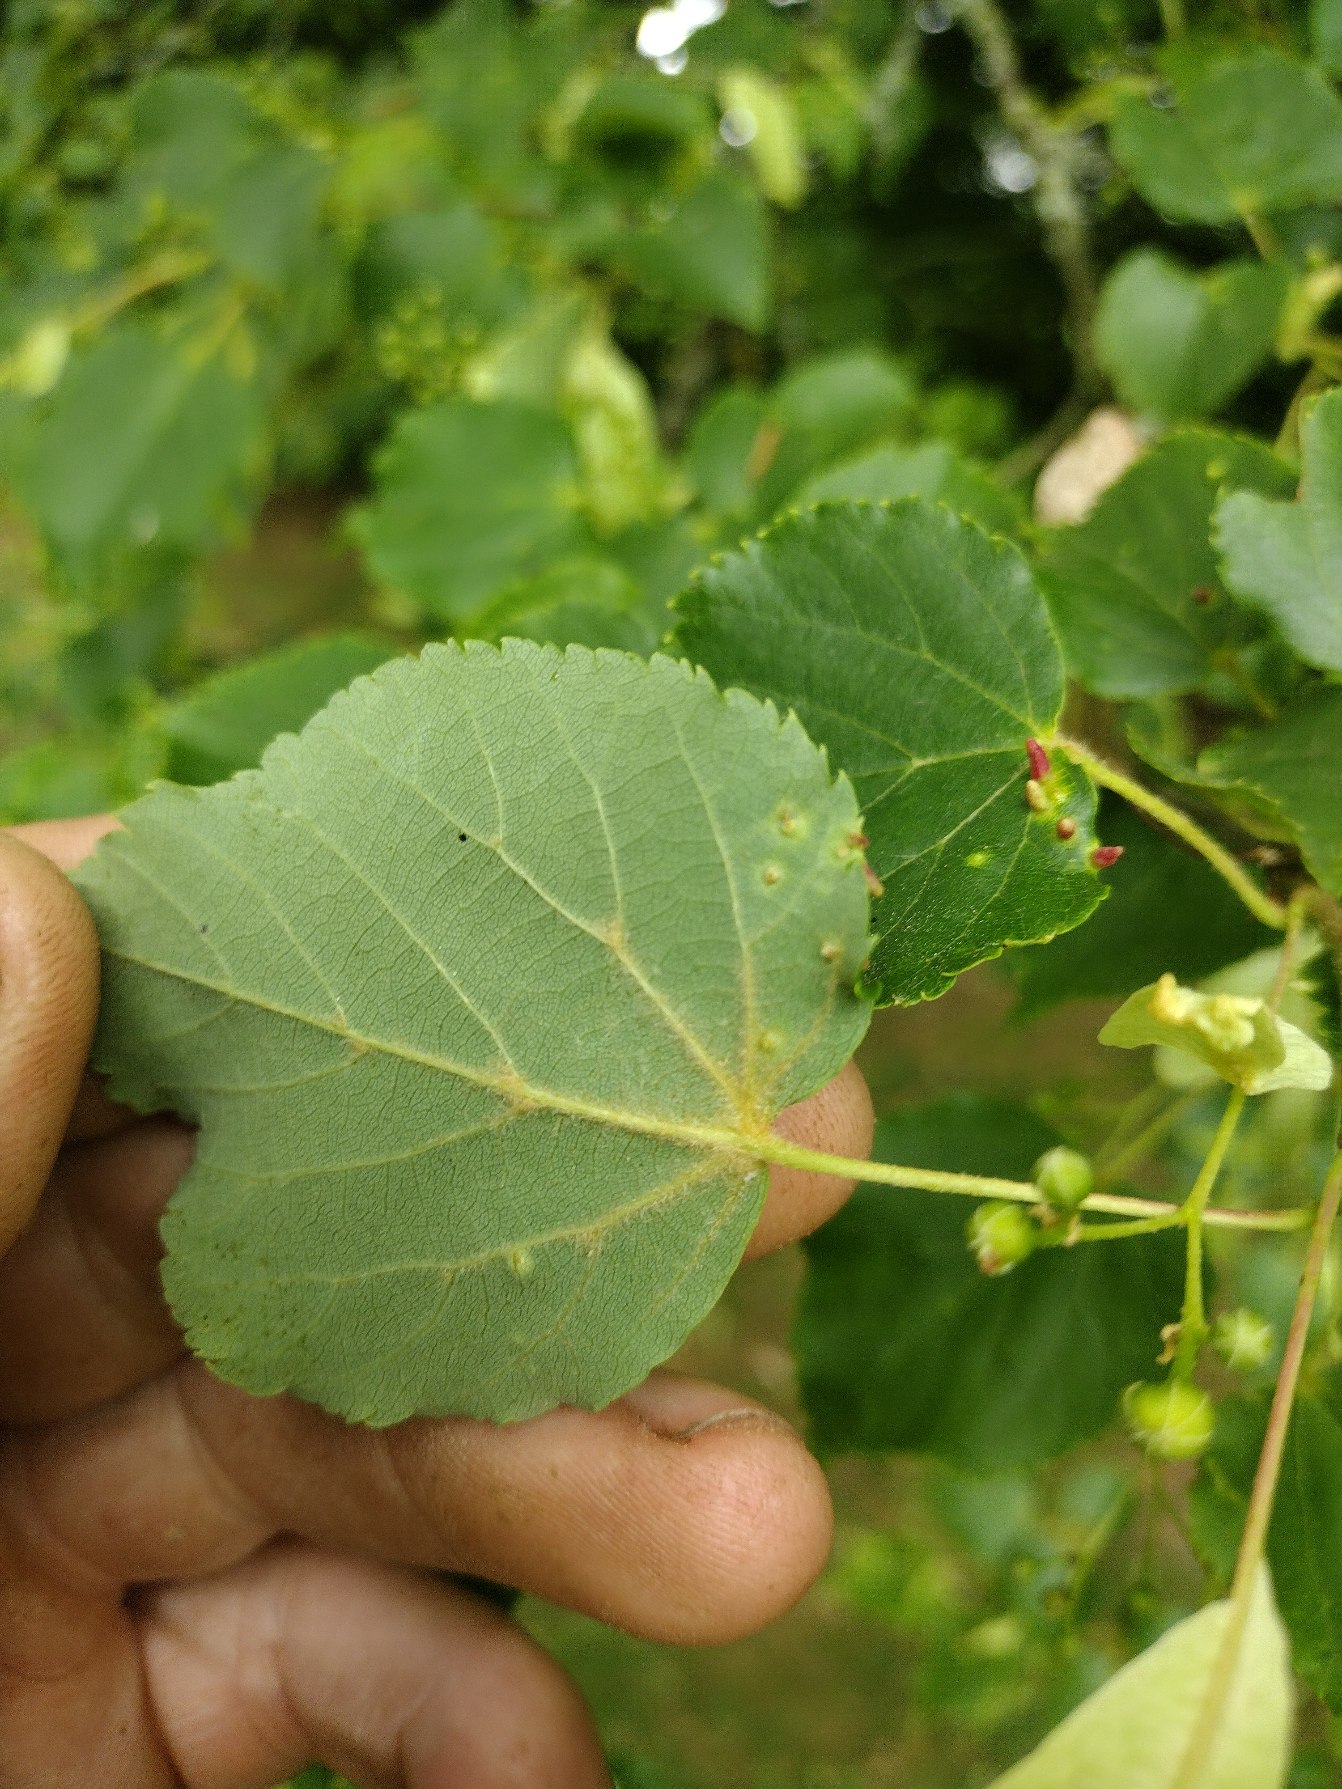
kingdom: Plantae
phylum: Tracheophyta
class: Magnoliopsida
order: Malvales
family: Malvaceae
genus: Tilia
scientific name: Tilia cordata
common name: Småbladet lind
